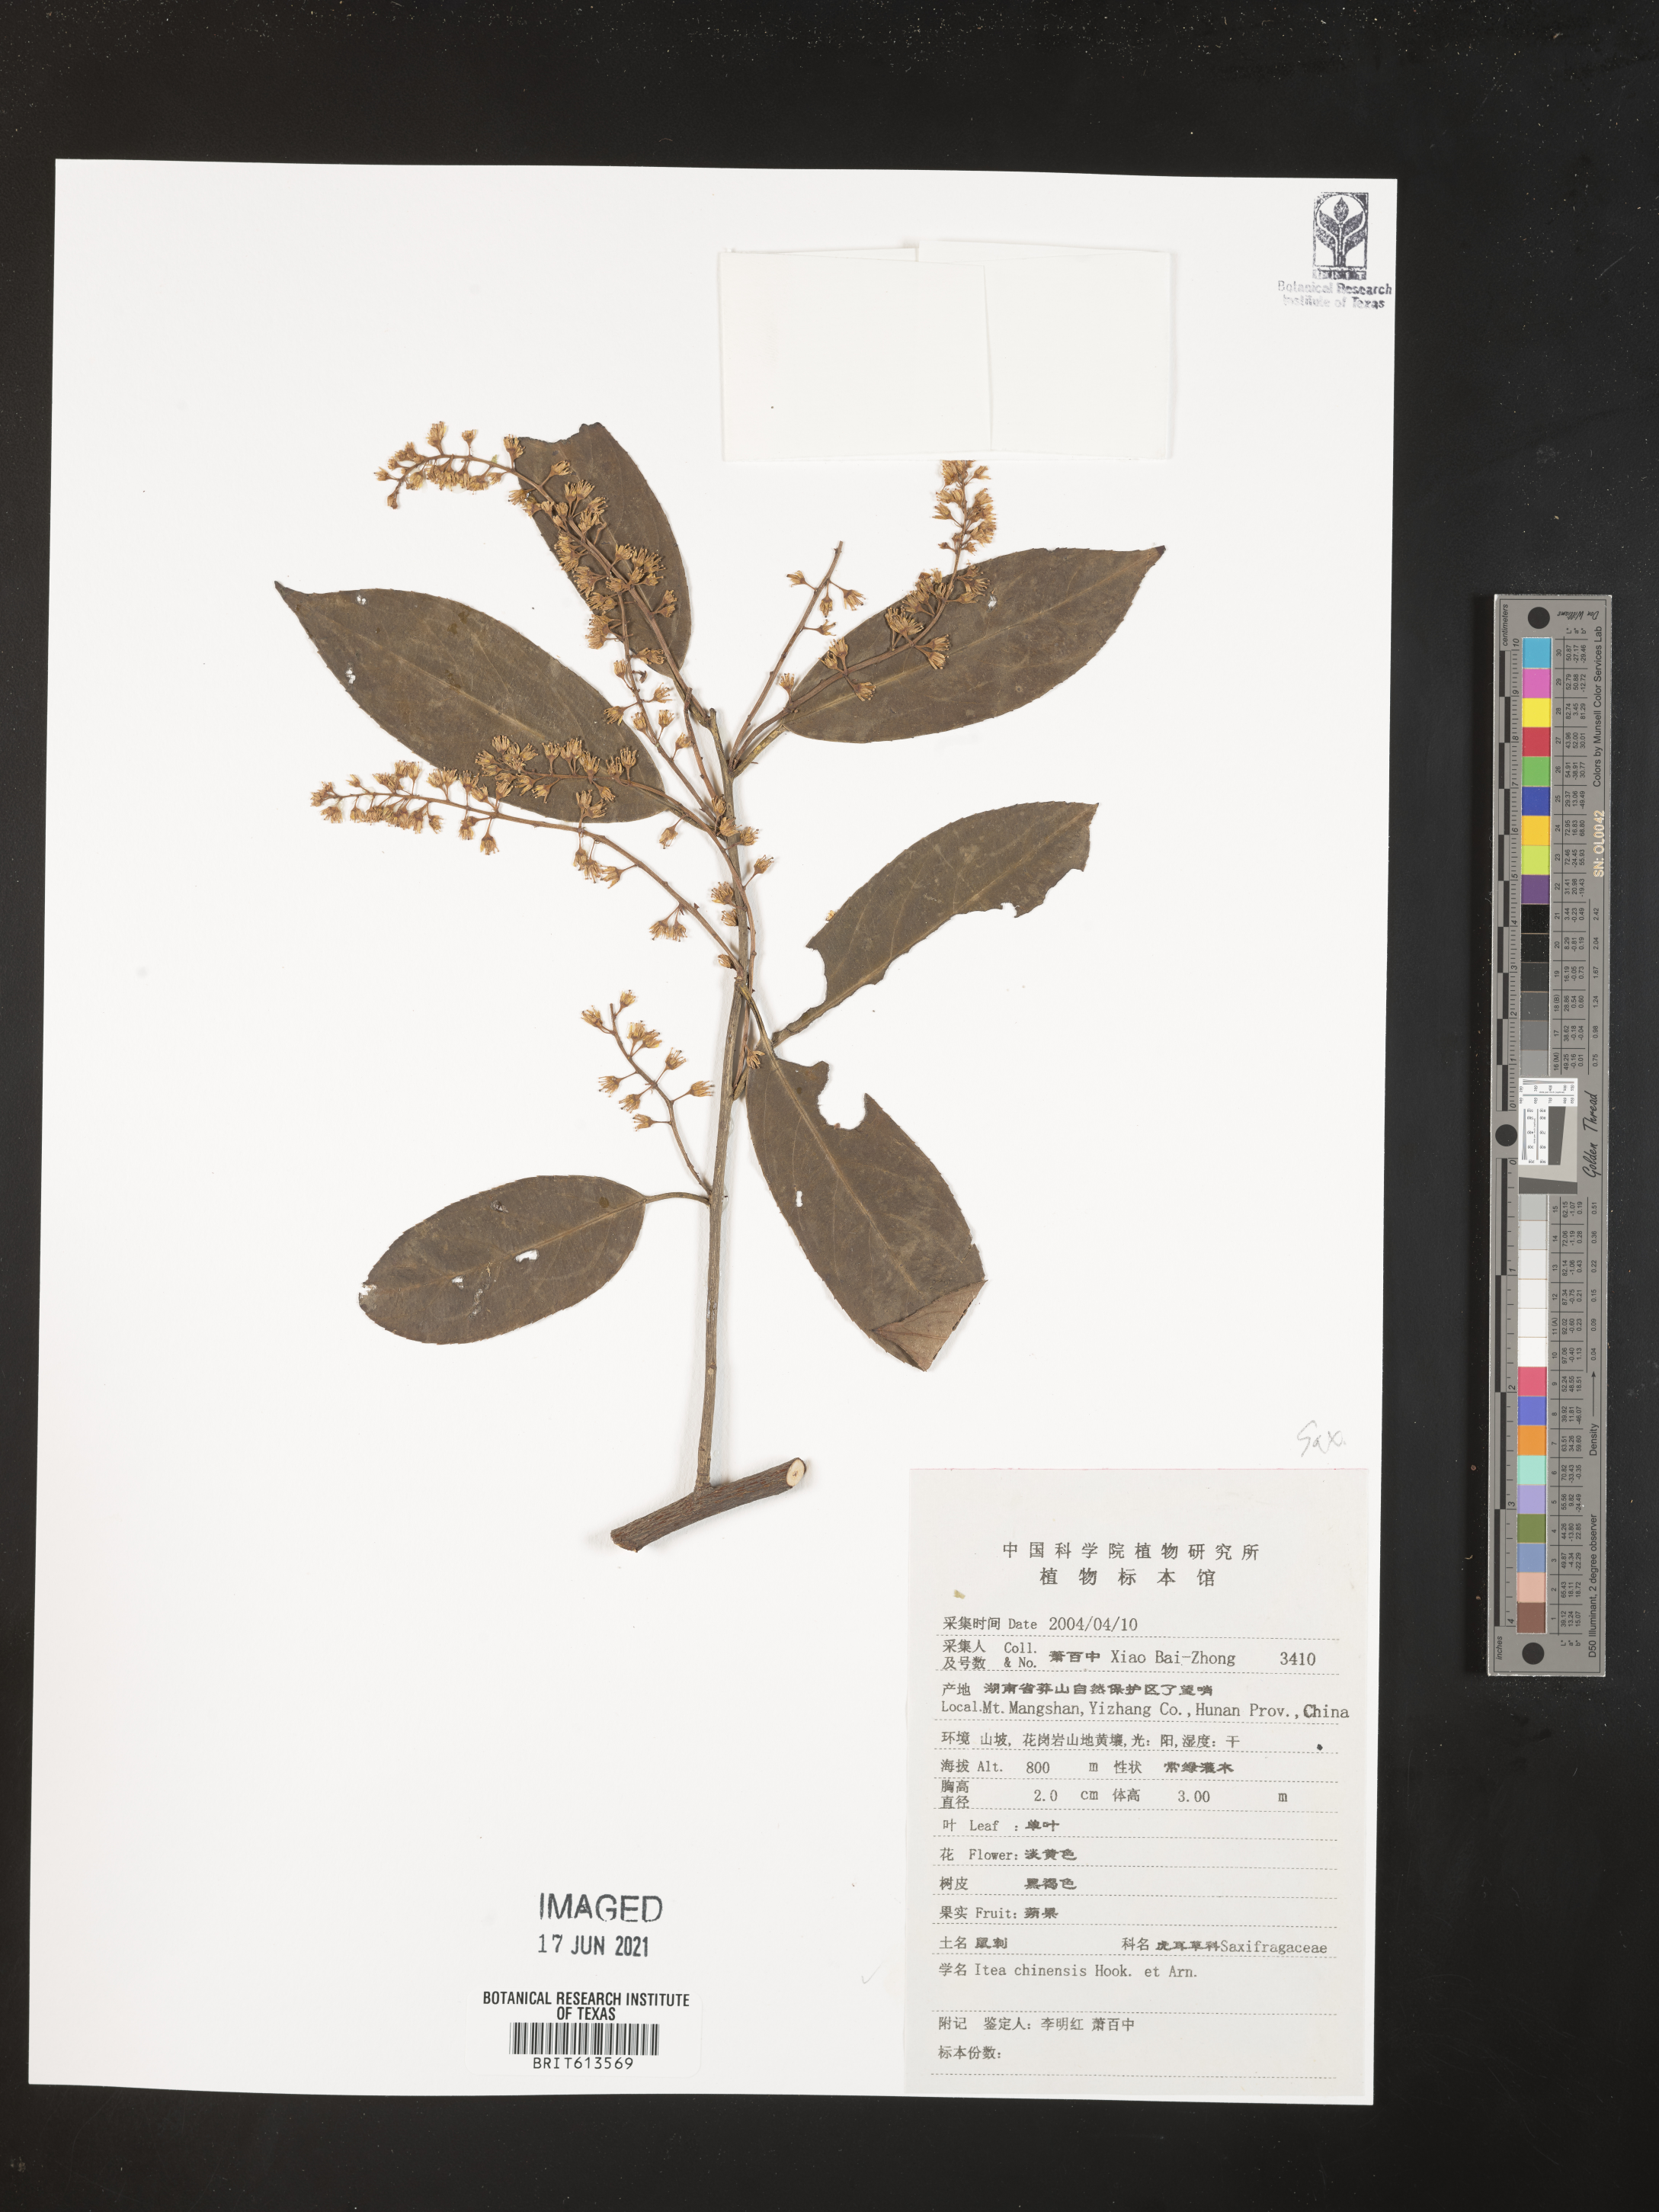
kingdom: Plantae
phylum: Tracheophyta
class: Magnoliopsida
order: Saxifragales
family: Iteaceae
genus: Itea
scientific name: Itea chinensis
